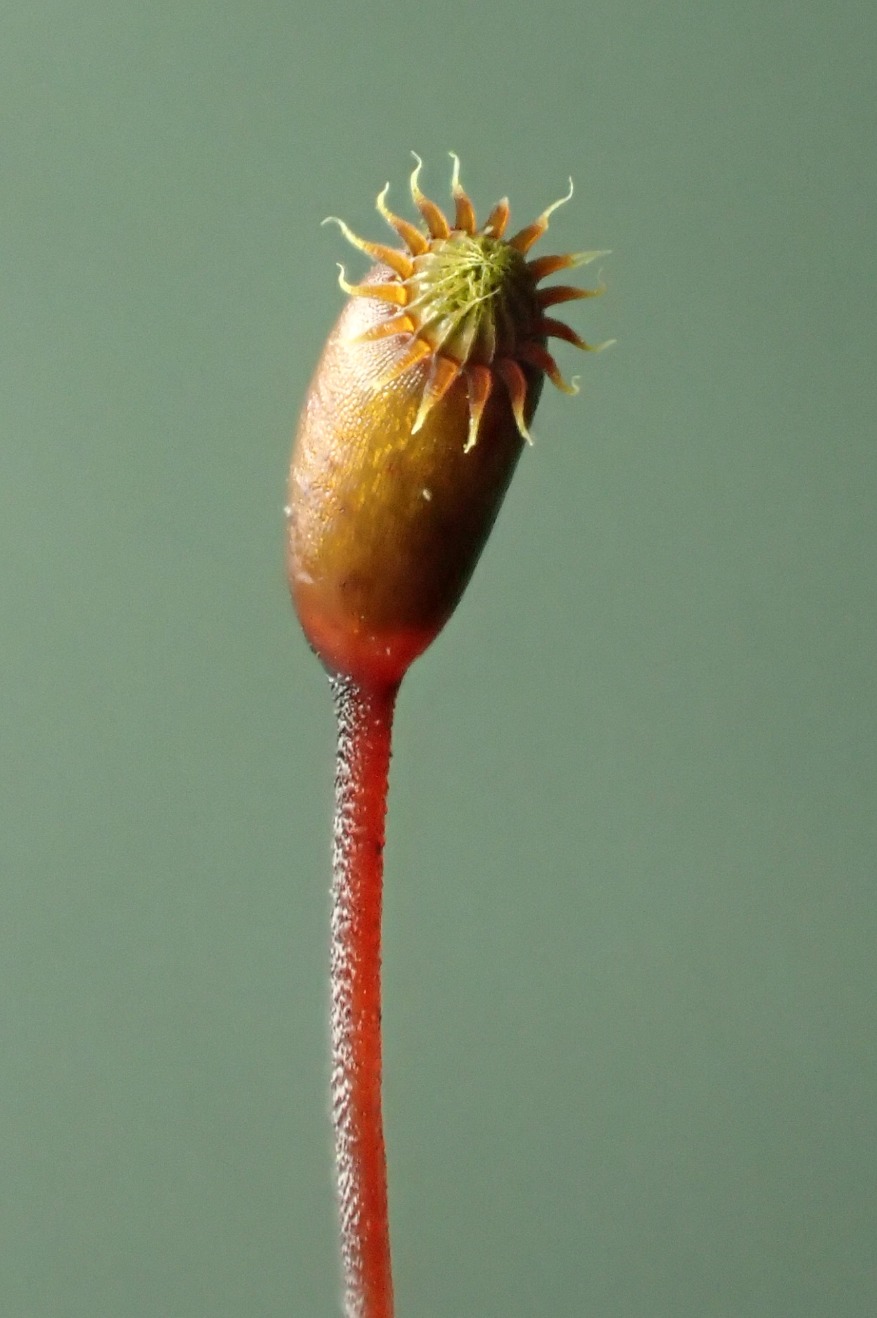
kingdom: Plantae
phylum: Bryophyta
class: Bryopsida
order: Hypnales
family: Brachytheciaceae
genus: Brachythecium
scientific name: Brachythecium rutabulum
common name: Almindelig kortkapsel
